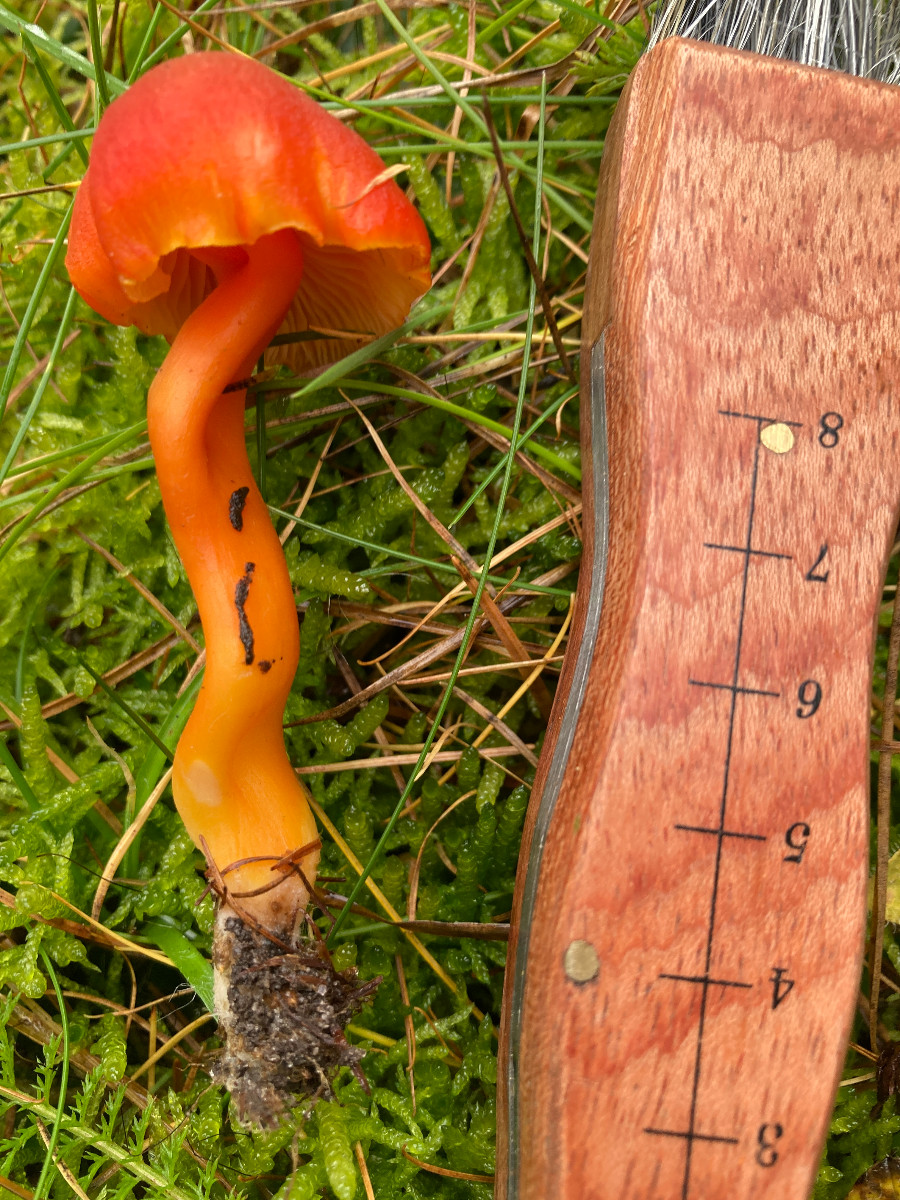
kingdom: Fungi
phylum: Basidiomycota
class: Agaricomycetes
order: Agaricales
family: Hygrophoraceae
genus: Hygrocybe
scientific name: Hygrocybe miniata
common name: mønje-vokshat
